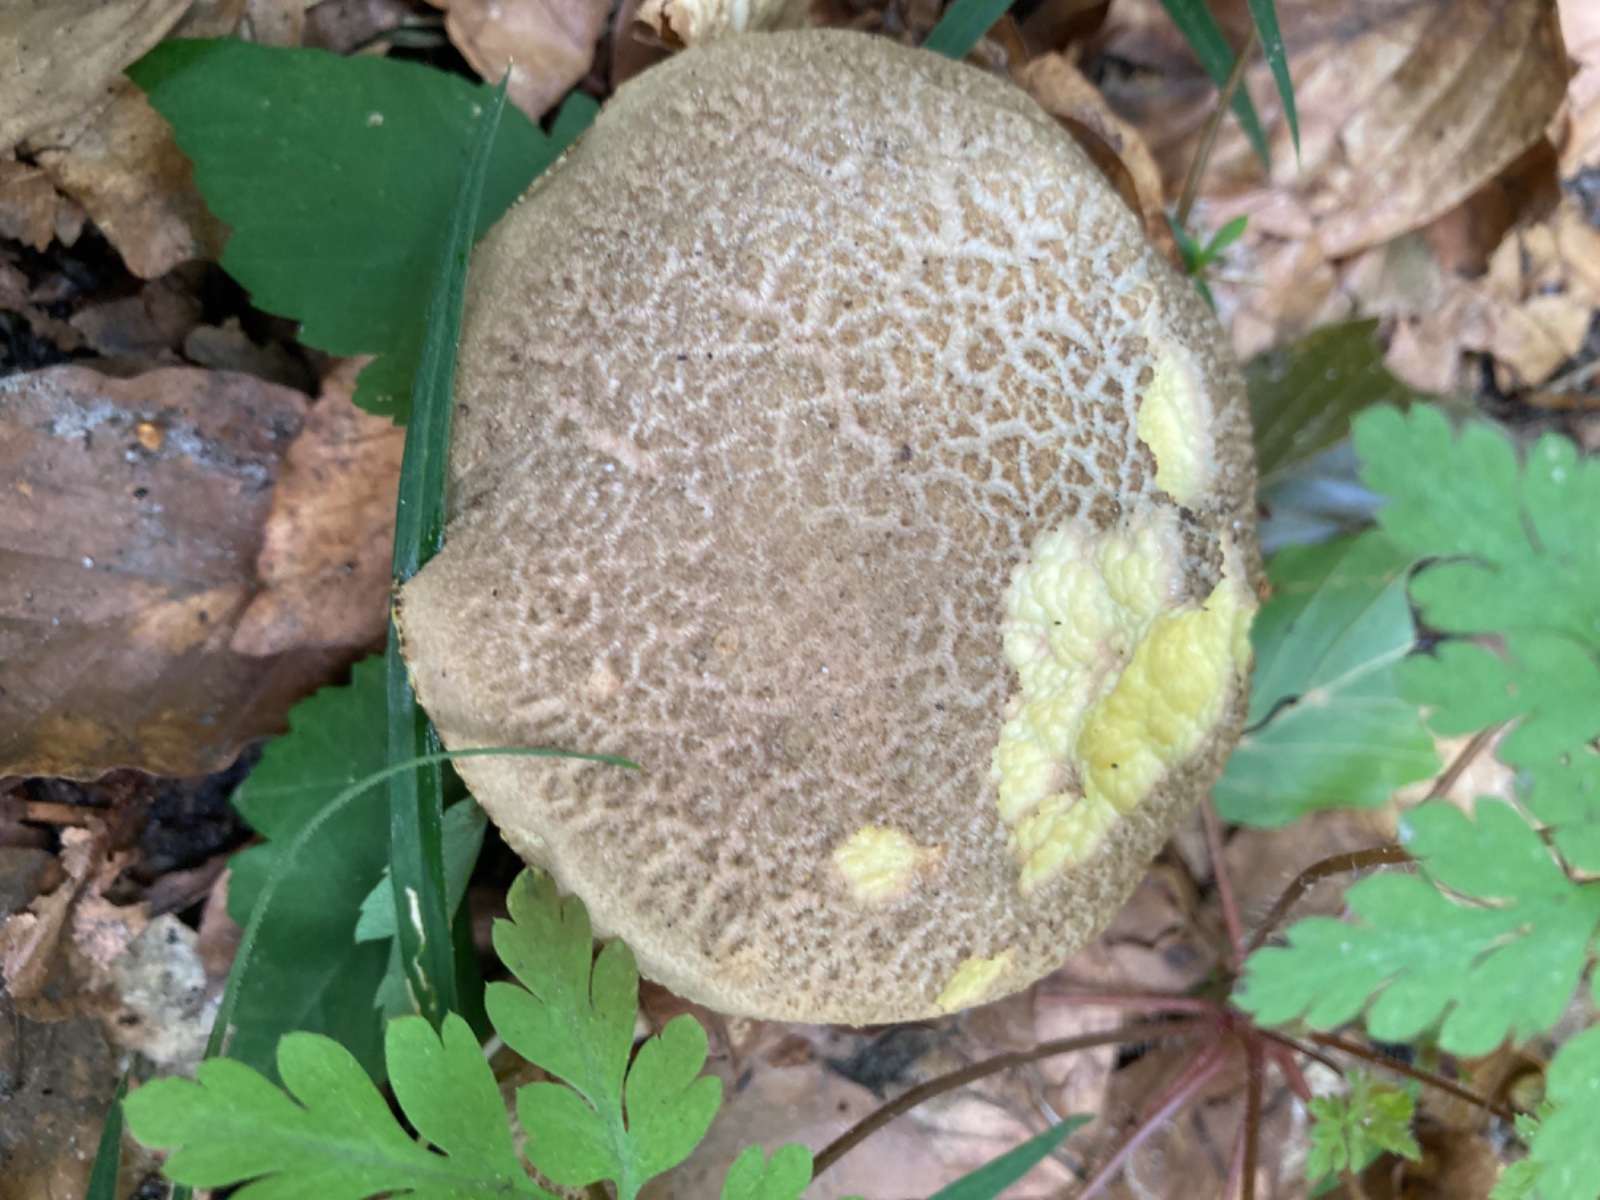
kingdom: Fungi
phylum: Basidiomycota
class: Agaricomycetes
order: Boletales
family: Boletaceae
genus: Xerocomellus
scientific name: Xerocomellus porosporus
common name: hvidsprukken rørhat
